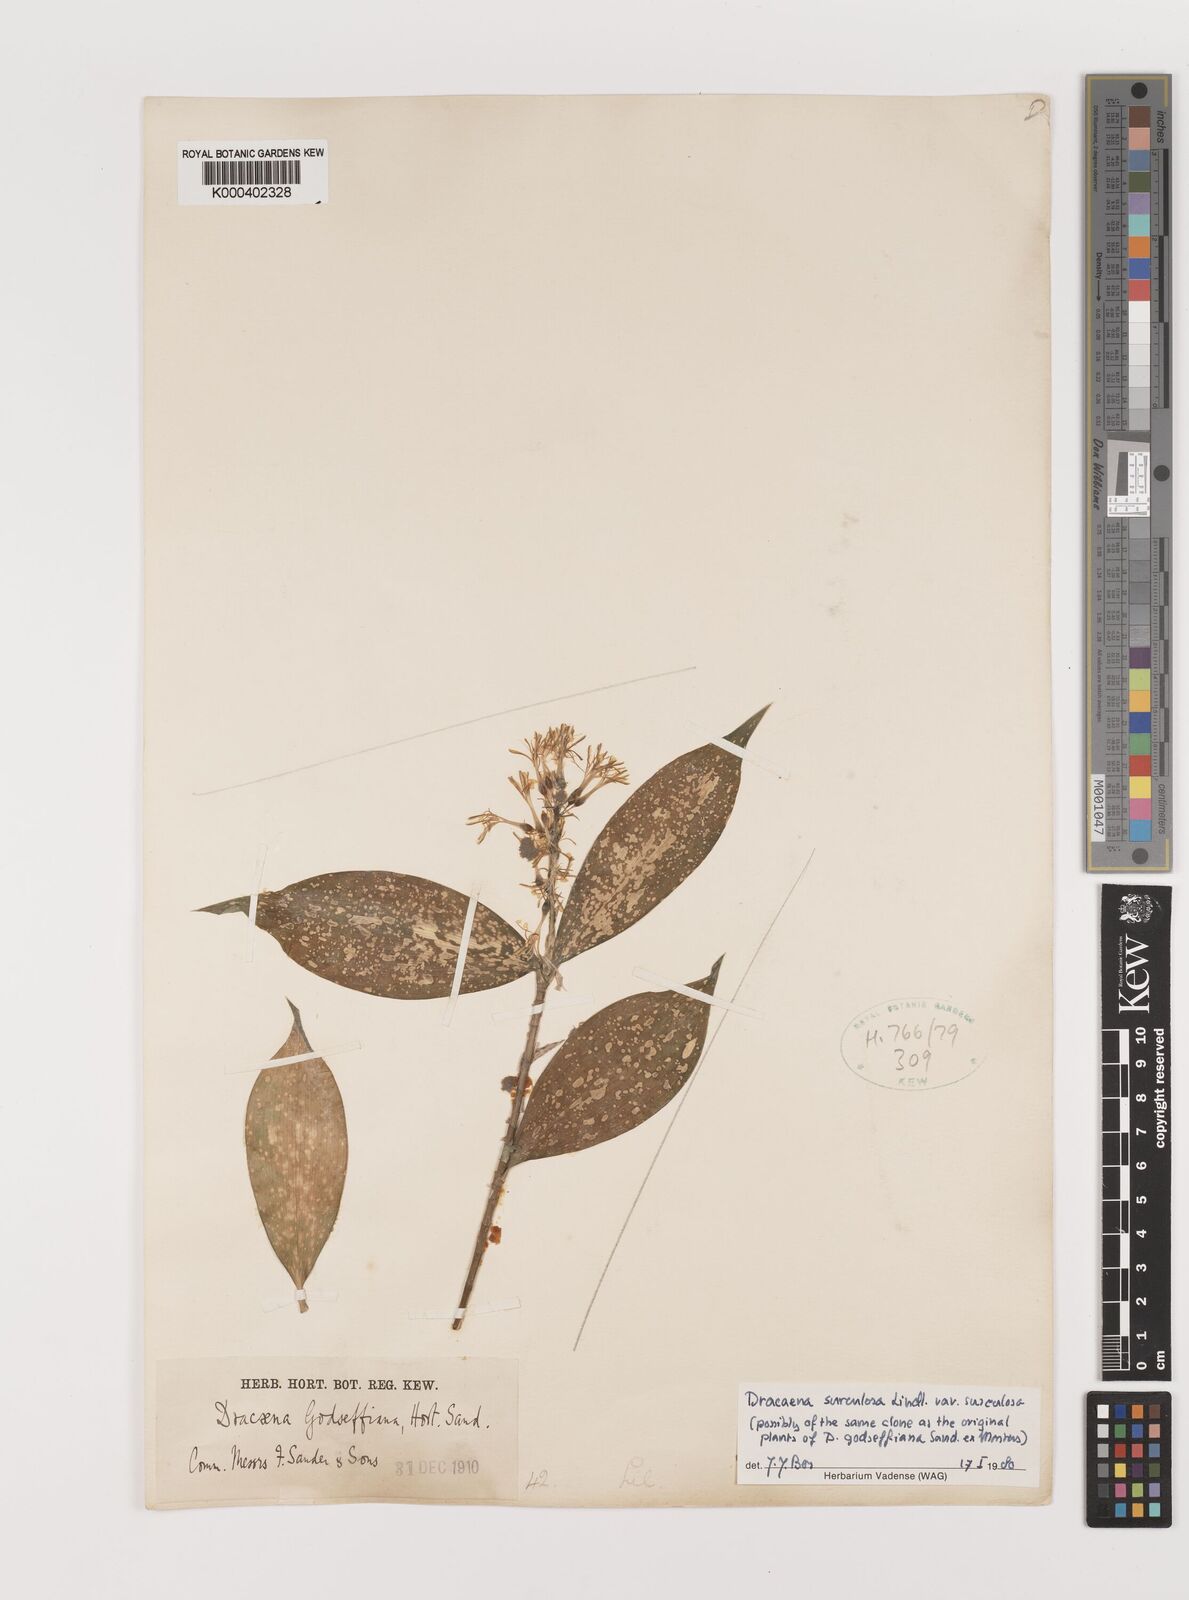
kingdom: Plantae
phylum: Tracheophyta
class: Liliopsida
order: Asparagales
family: Asparagaceae
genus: Dracaena
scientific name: Dracaena surculosa
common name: Spotted dracaena
